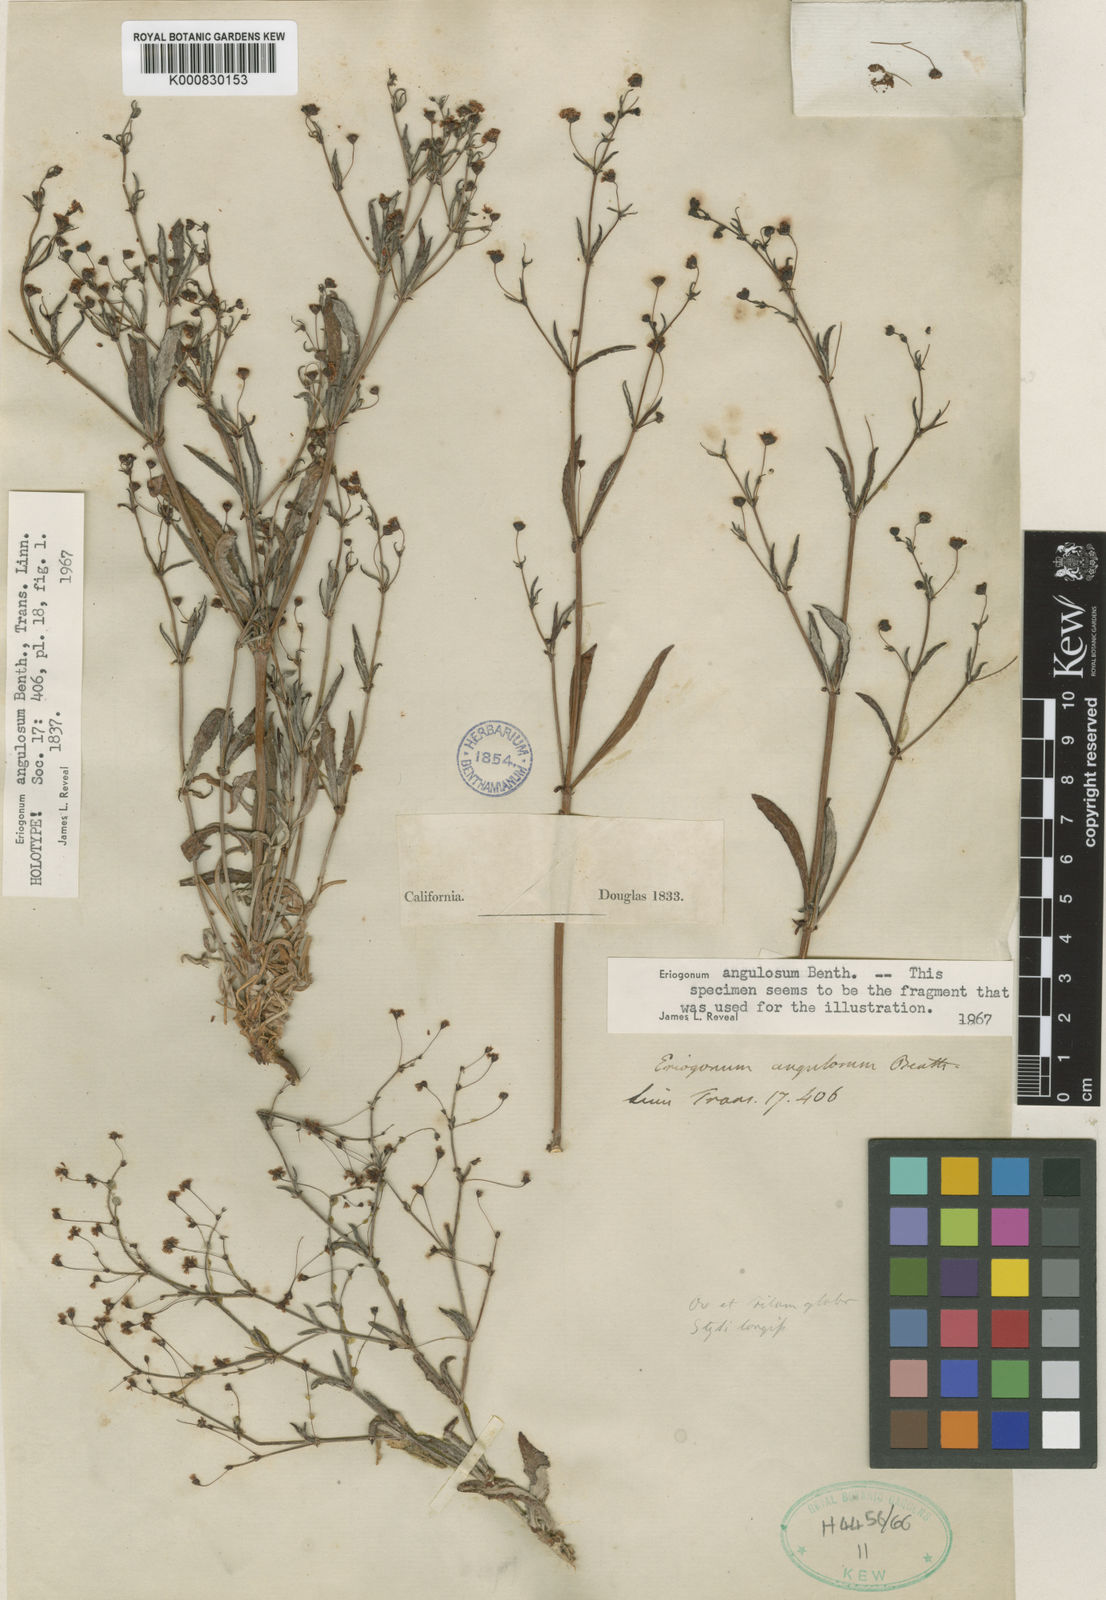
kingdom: Plantae
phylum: Tracheophyta
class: Magnoliopsida
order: Caryophyllales
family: Polygonaceae
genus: Eriogonum
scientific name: Eriogonum angulosum
